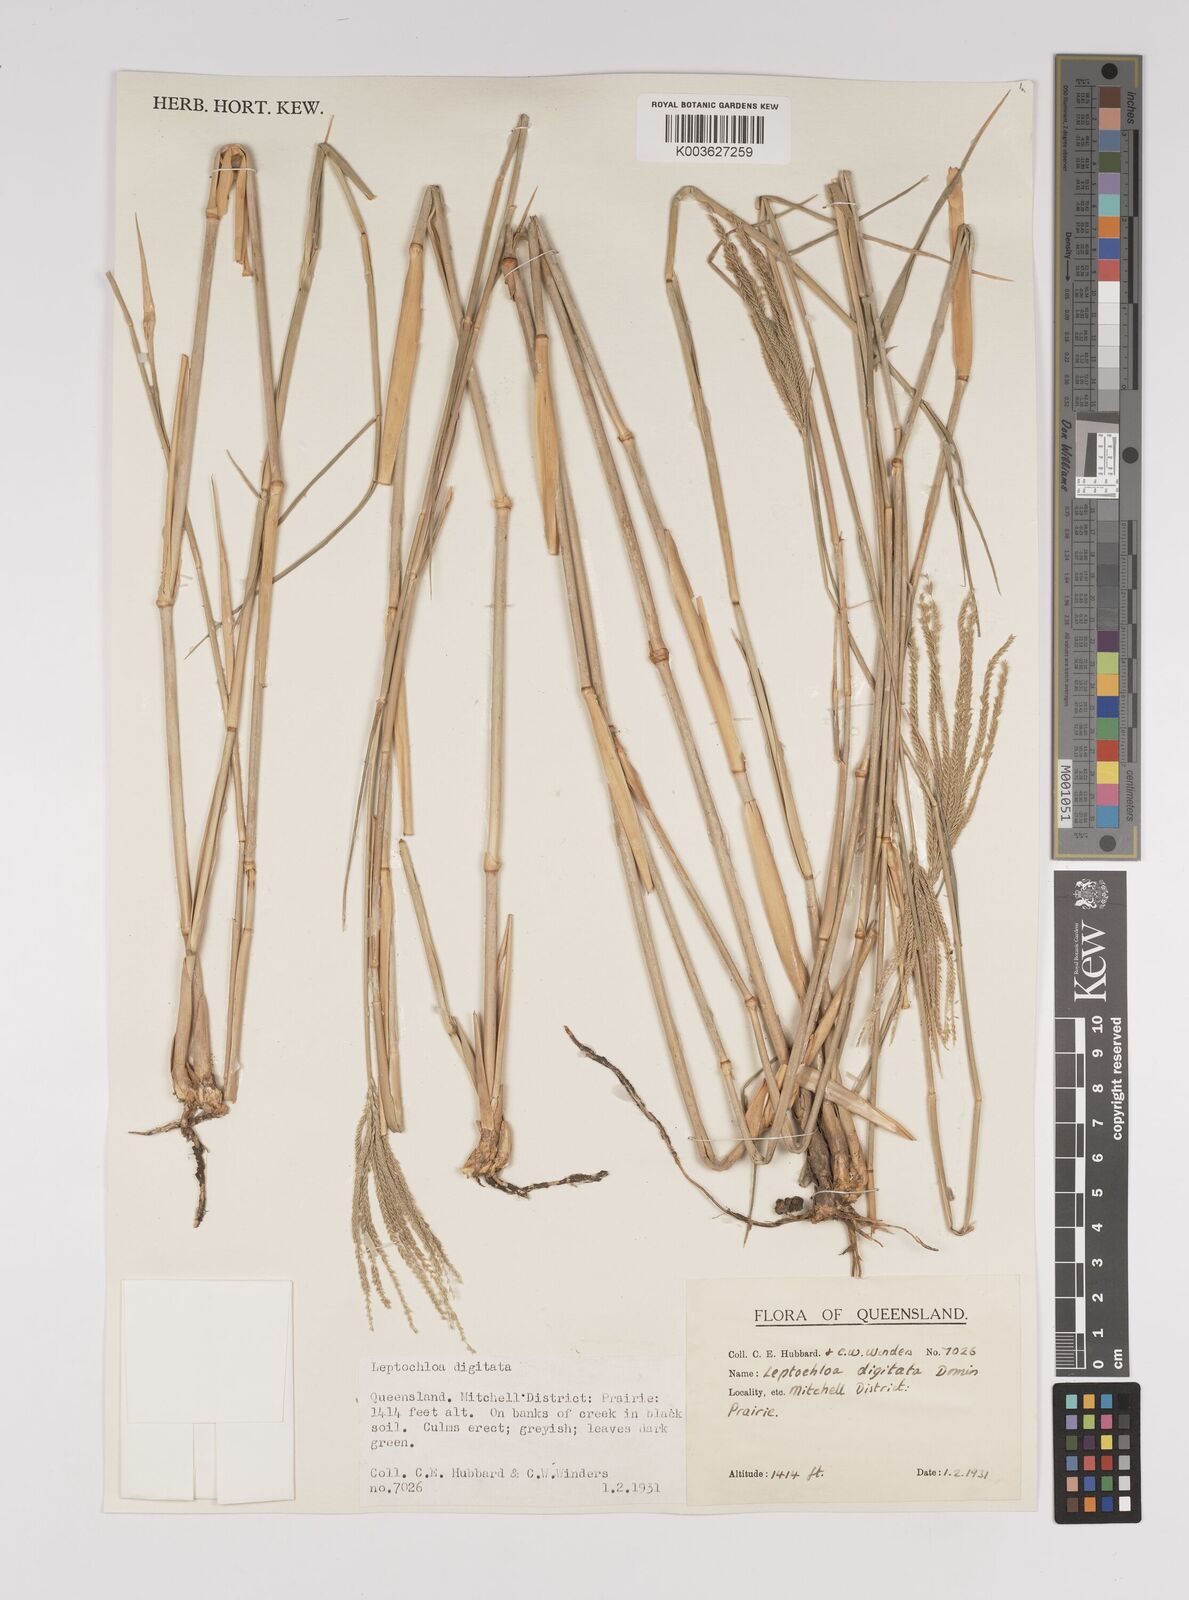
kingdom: Plantae
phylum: Tracheophyta
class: Liliopsida
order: Poales
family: Poaceae
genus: Leptochloa
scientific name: Leptochloa digitata
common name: Finger sprangletop
